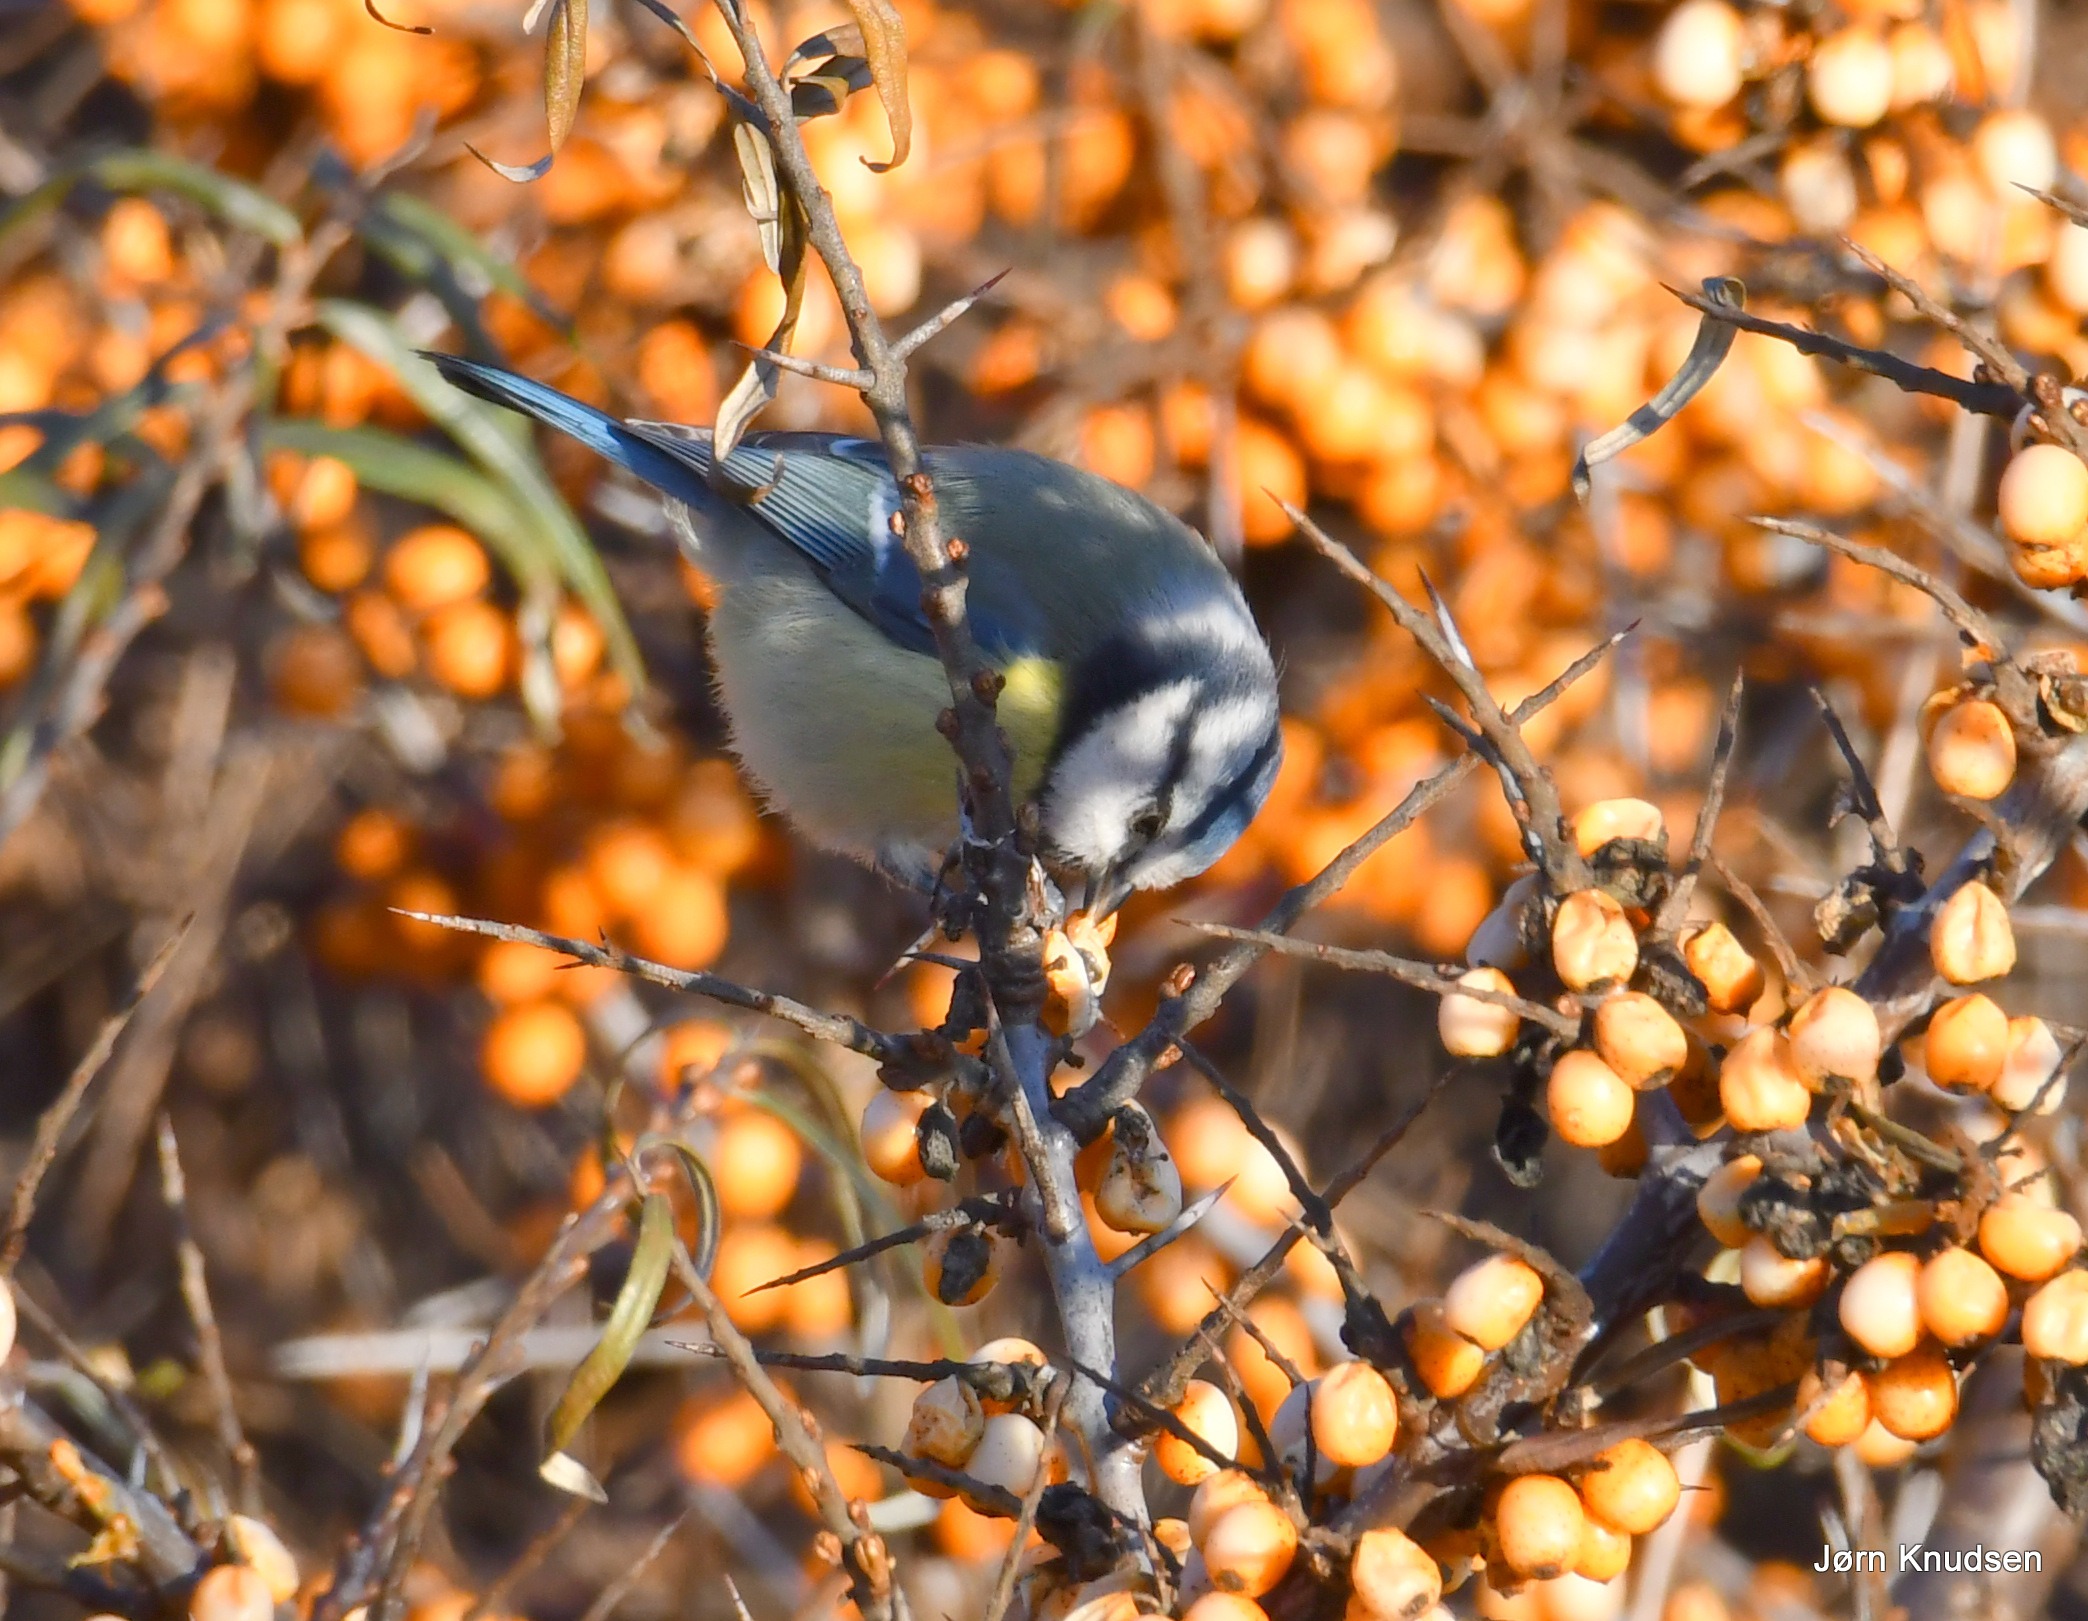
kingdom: Animalia
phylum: Chordata
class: Aves
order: Passeriformes
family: Paridae
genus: Cyanistes
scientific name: Cyanistes caeruleus
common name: Blåmejse
